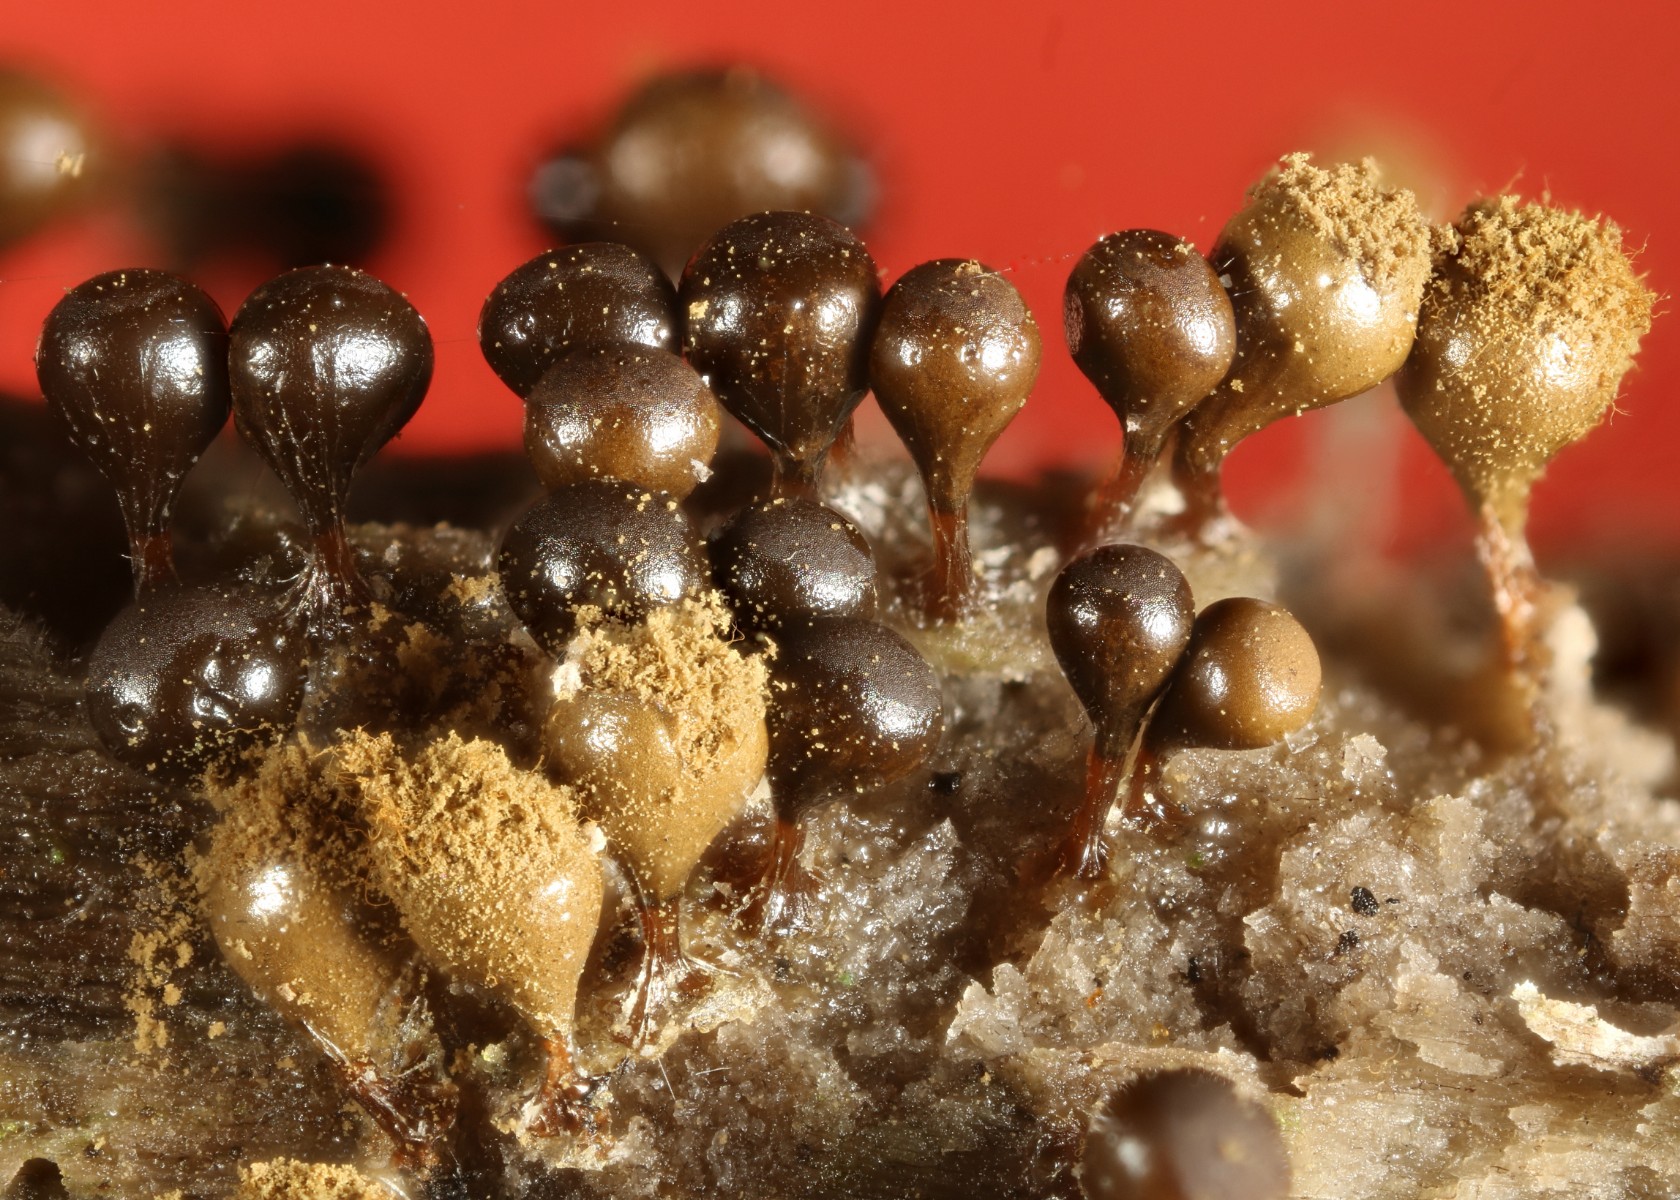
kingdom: Protozoa
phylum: Mycetozoa
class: Myxomycetes
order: Trichiales
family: Trichiaceae
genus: Trichia
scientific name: Trichia crateriformis
